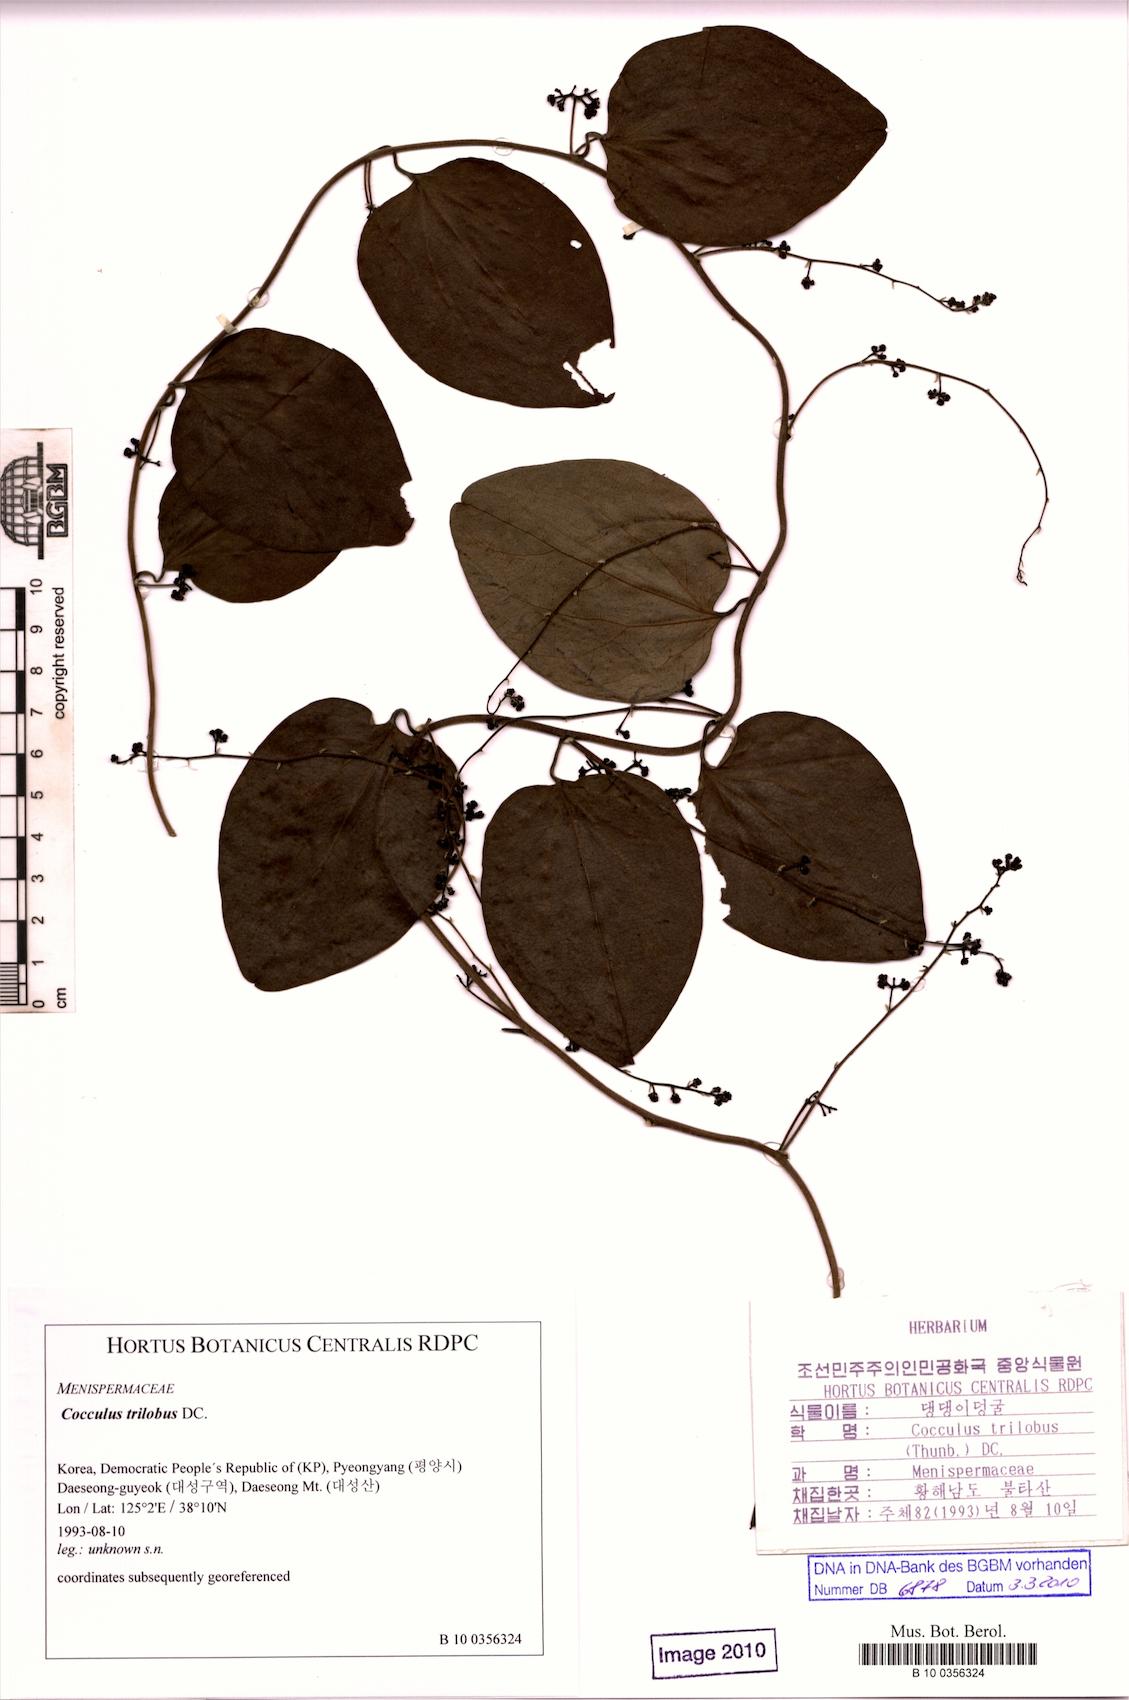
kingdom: Plantae
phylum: Tracheophyta
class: Magnoliopsida
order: Ranunculales
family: Menispermaceae
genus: Cocculus
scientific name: Cocculus orbiculatus
